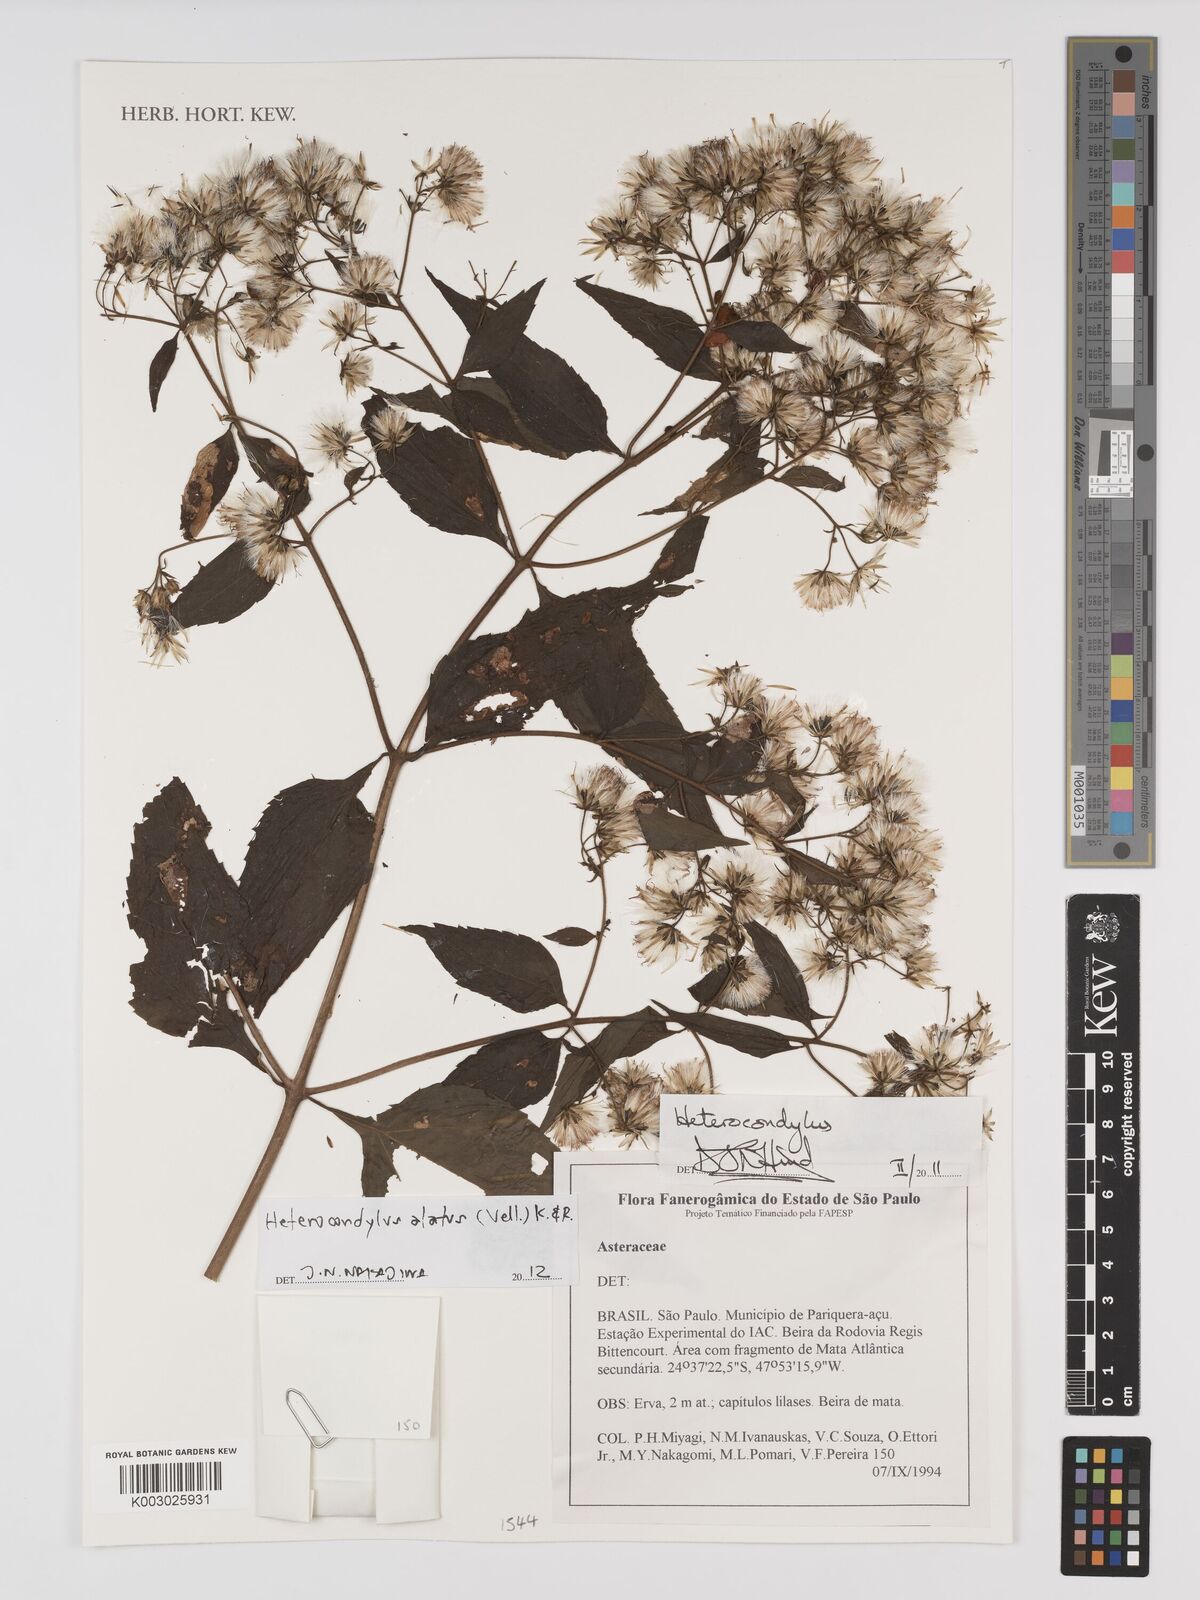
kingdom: Plantae
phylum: Tracheophyta
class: Magnoliopsida
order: Asterales
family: Asteraceae
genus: Heterocondylus
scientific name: Heterocondylus alatus
